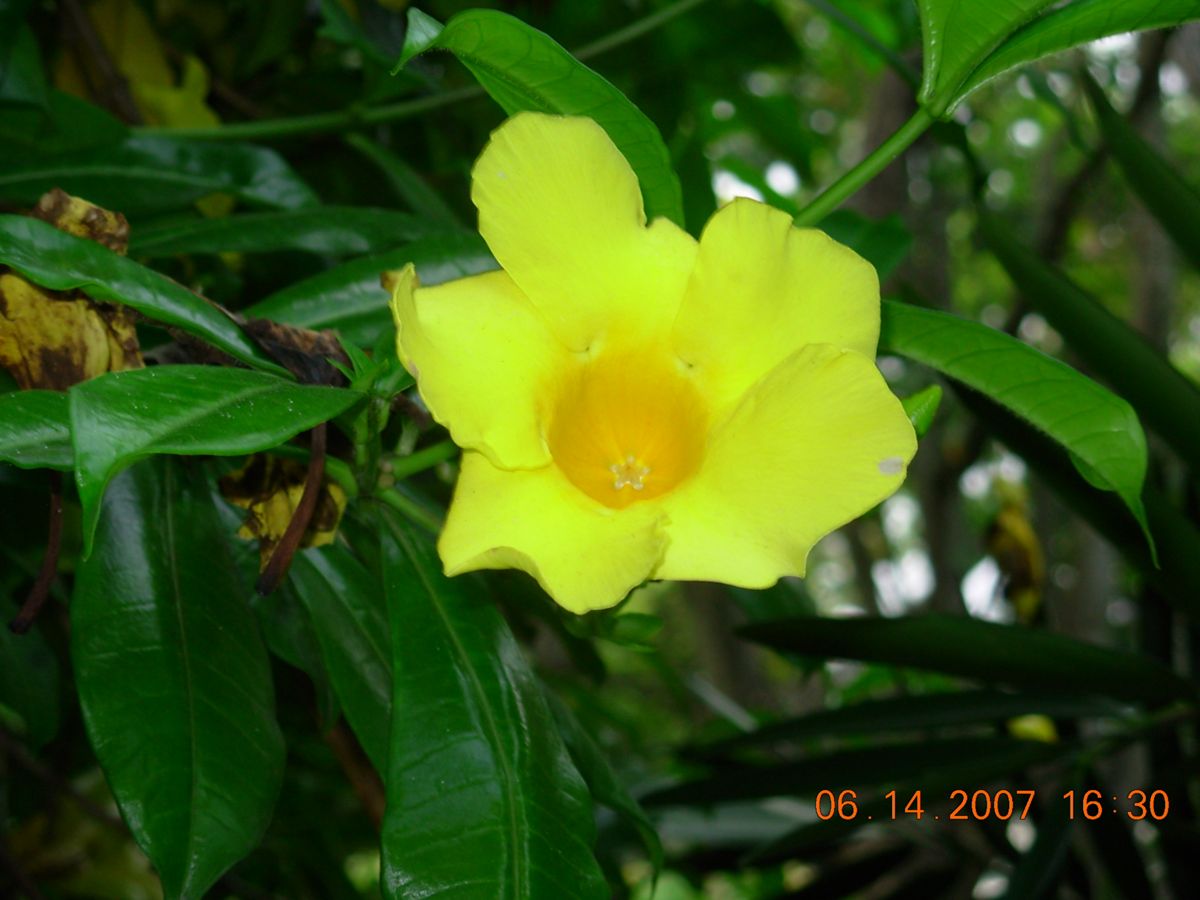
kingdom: Plantae
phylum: Tracheophyta
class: Magnoliopsida
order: Gentianales
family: Apocynaceae
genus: Allamanda
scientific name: Allamanda cathartica
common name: Golden trumpet
